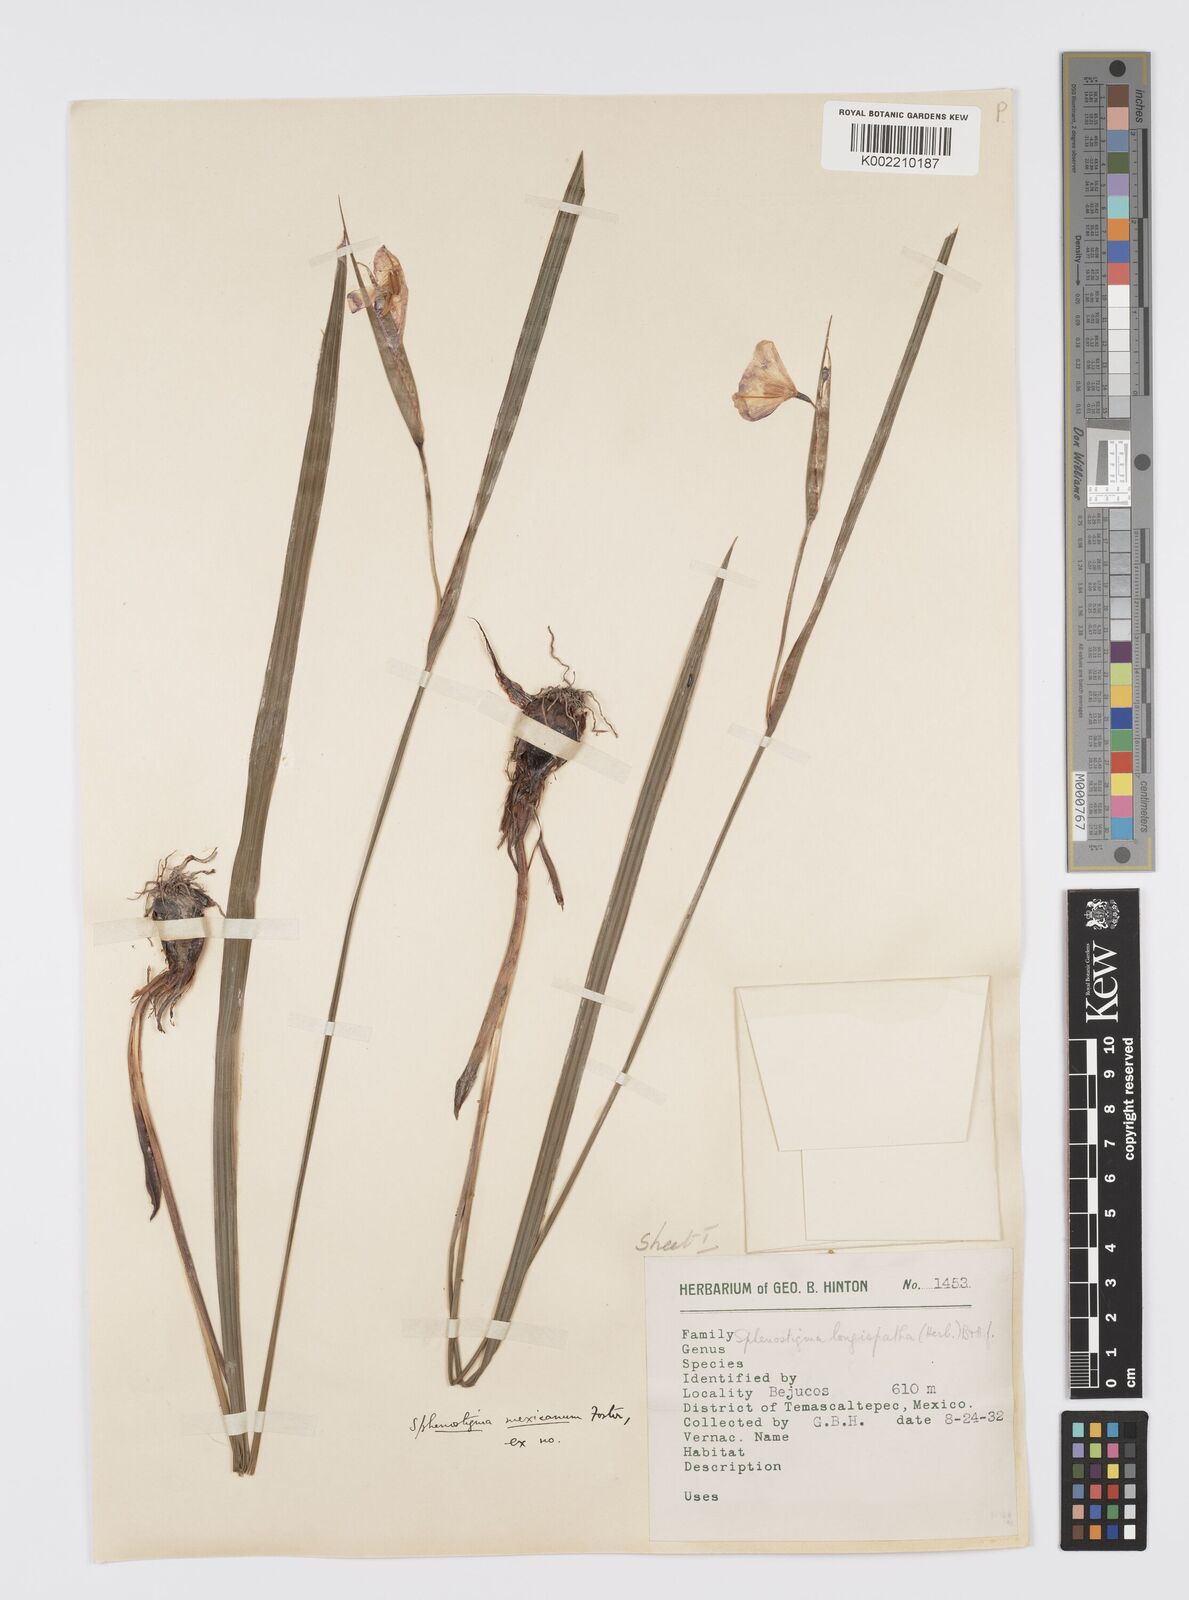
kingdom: Plantae
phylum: Tracheophyta
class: Liliopsida
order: Asparagales
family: Iridaceae
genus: Gelasine
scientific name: Gelasine
